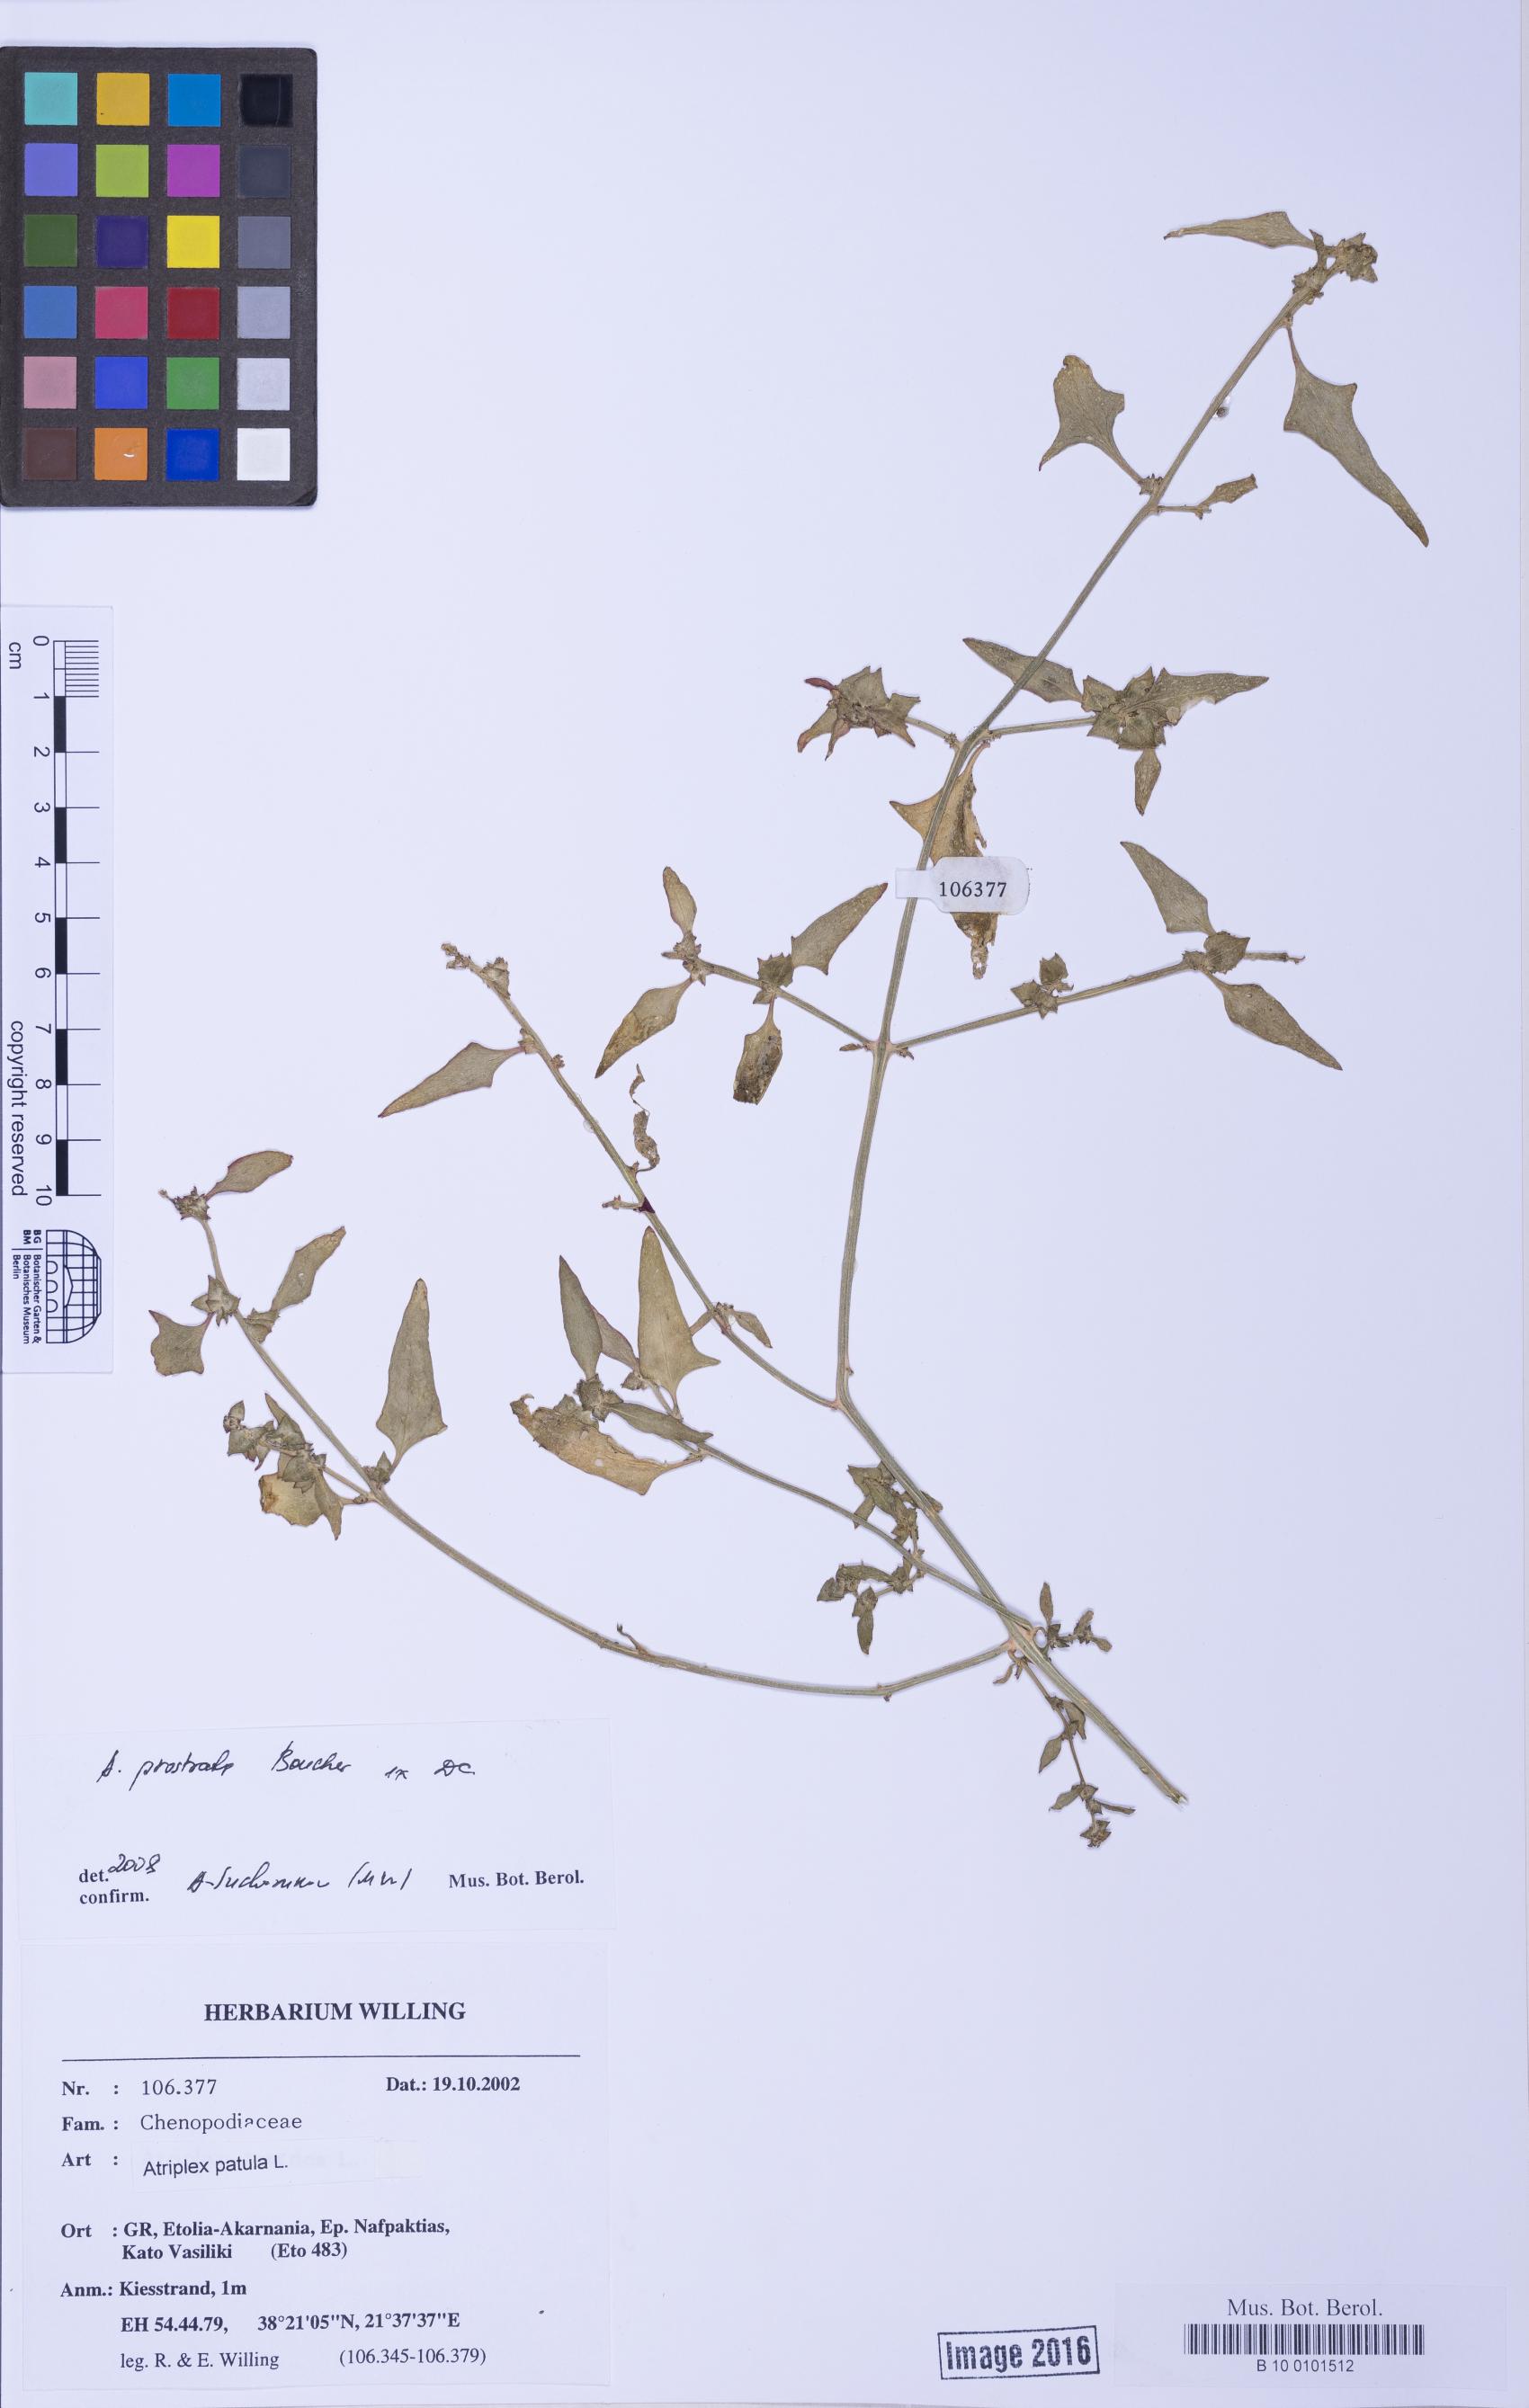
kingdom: Plantae
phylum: Tracheophyta
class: Magnoliopsida
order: Caryophyllales
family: Amaranthaceae
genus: Atriplex
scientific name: Atriplex prostrata
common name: Spear-leaved orache
